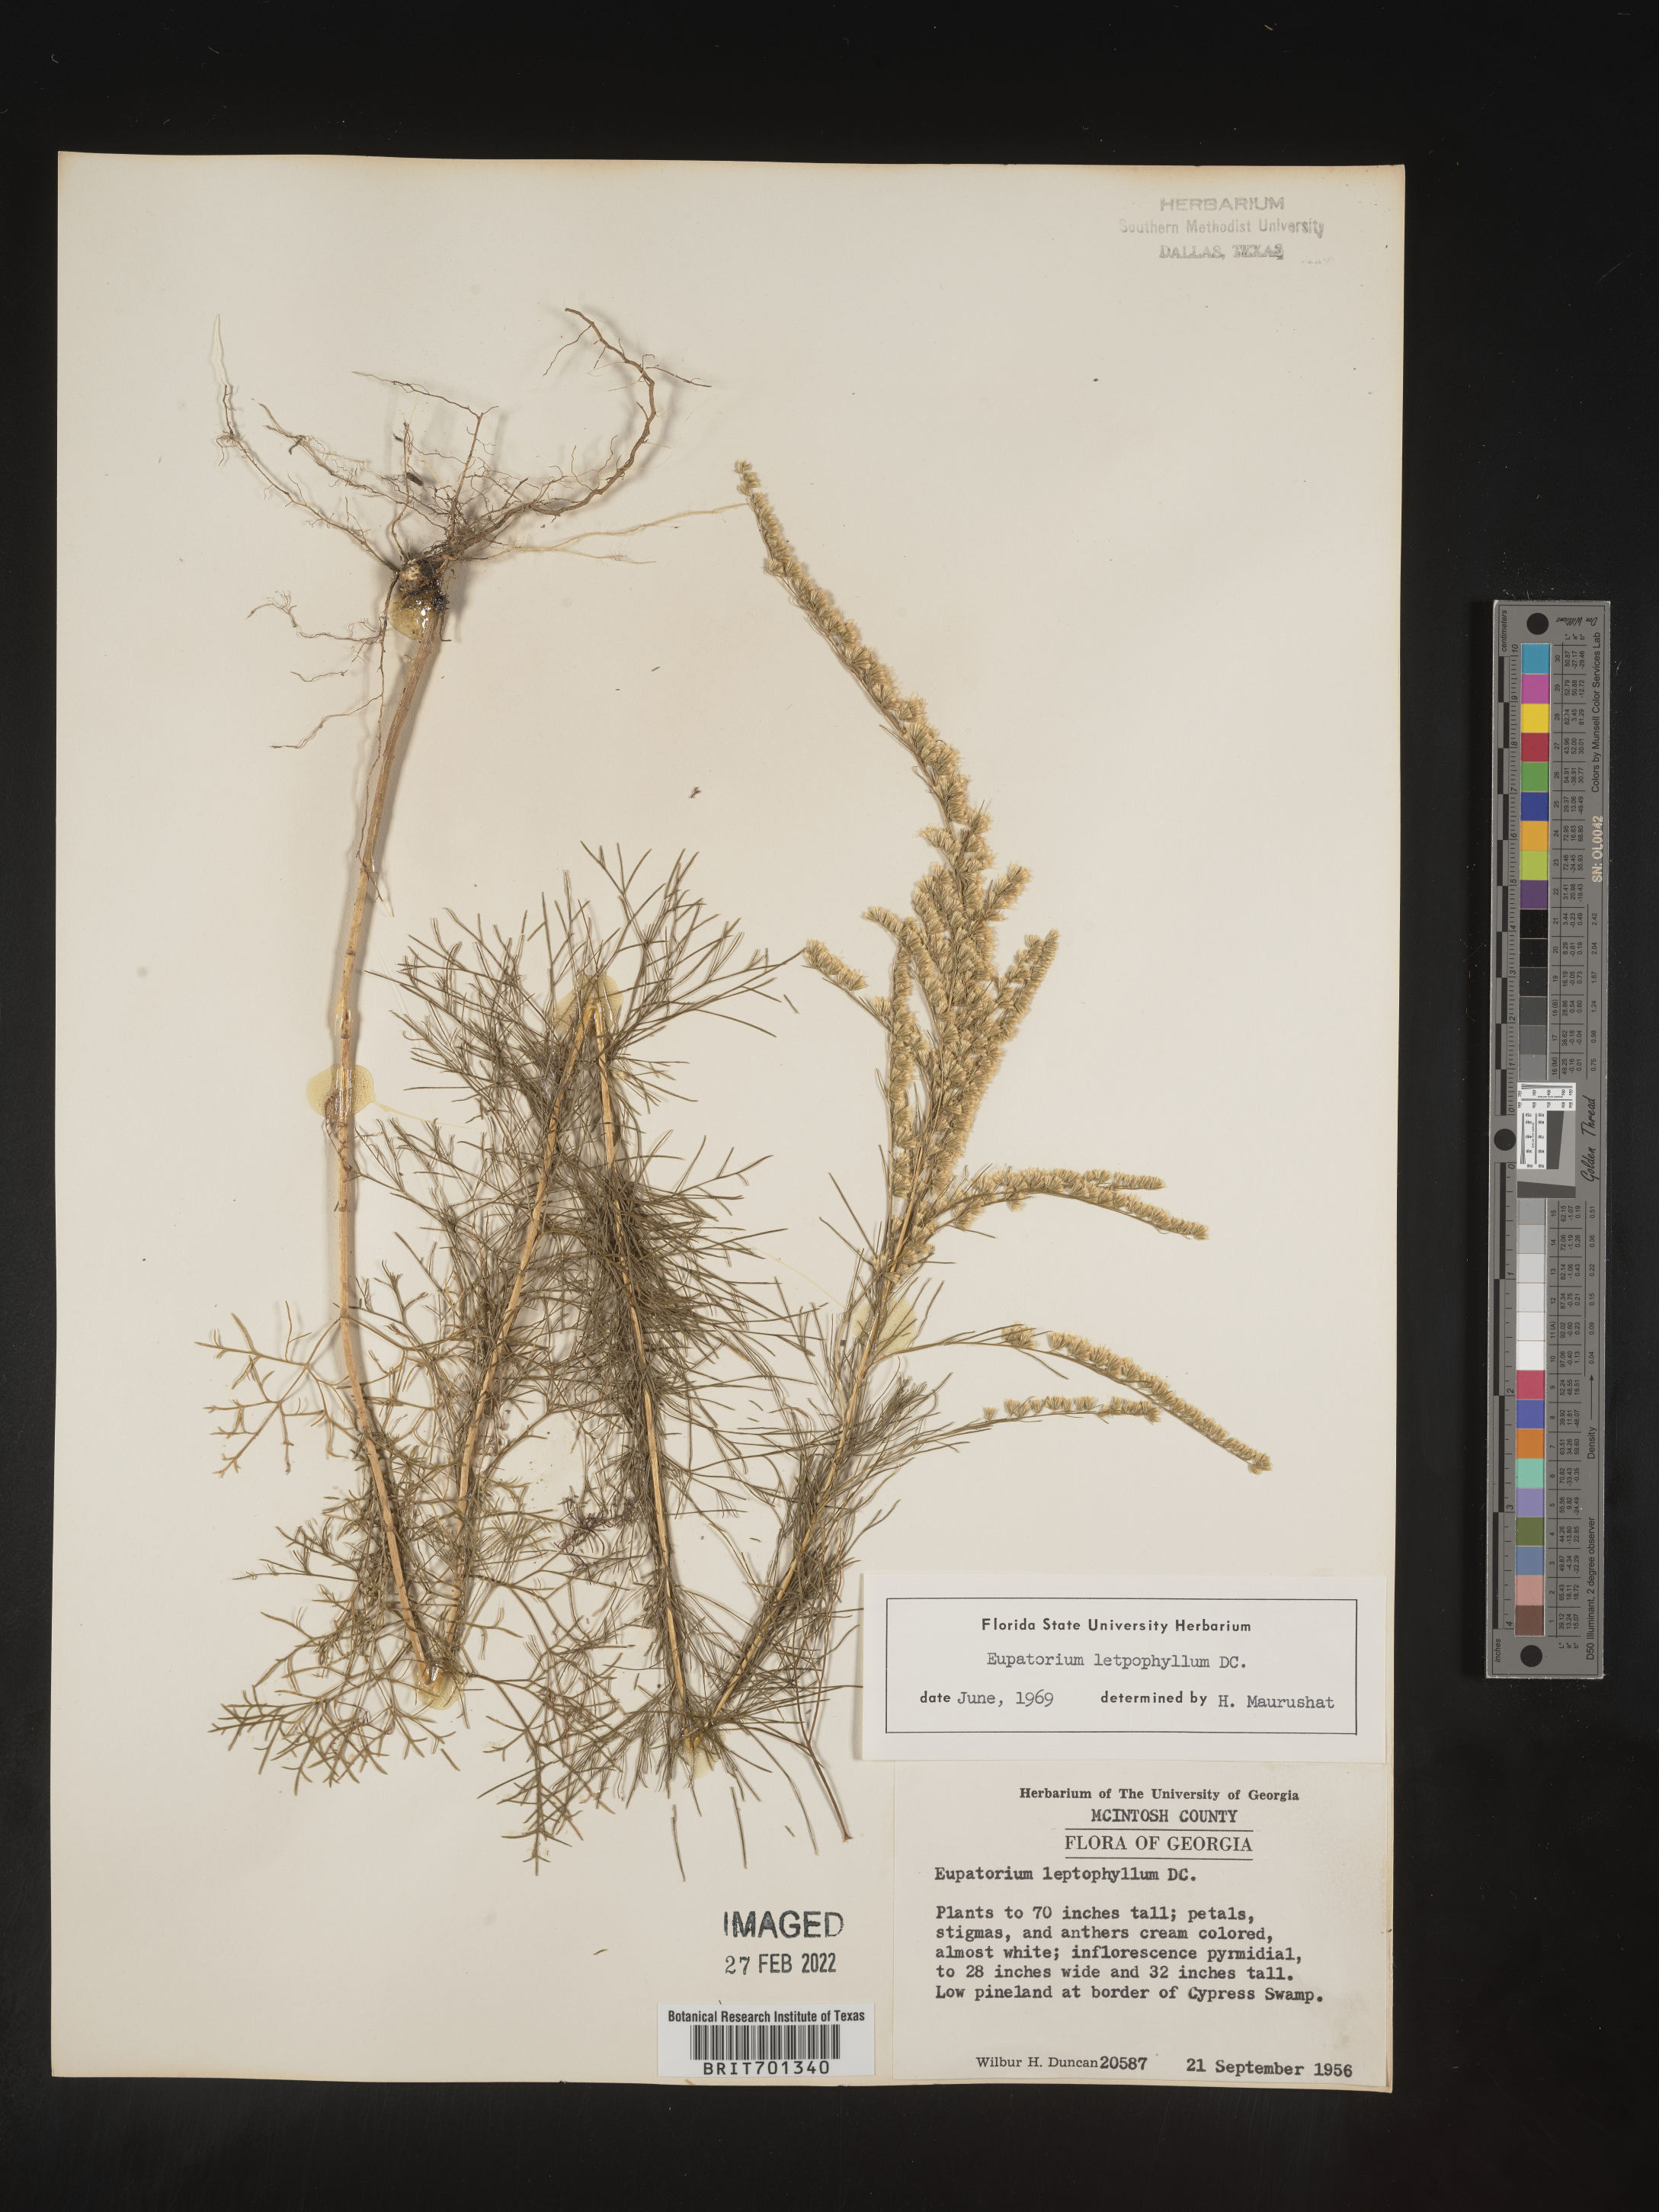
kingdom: Plantae
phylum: Tracheophyta
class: Magnoliopsida
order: Asterales
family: Asteraceae
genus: Eupatorium
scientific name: Eupatorium leptophyllum
